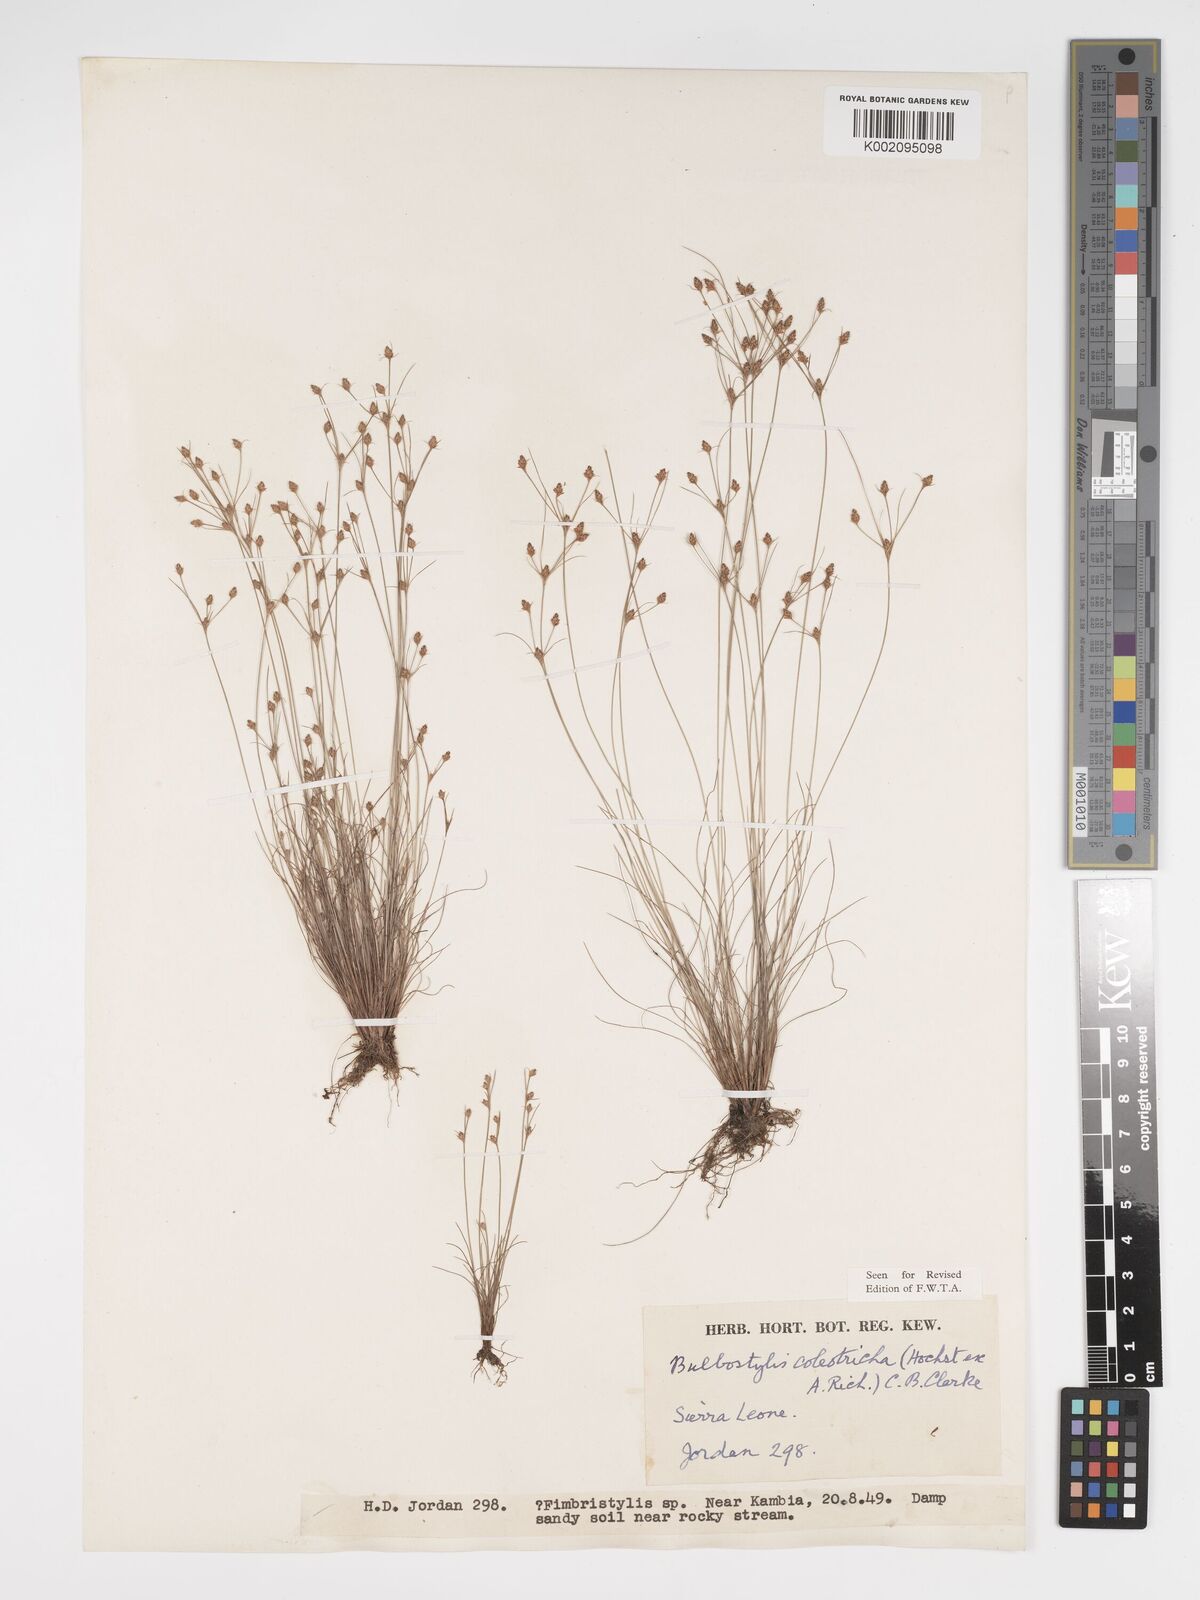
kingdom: Plantae
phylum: Tracheophyta
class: Liliopsida
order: Poales
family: Cyperaceae
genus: Bulbostylis
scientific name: Bulbostylis coleotricha
